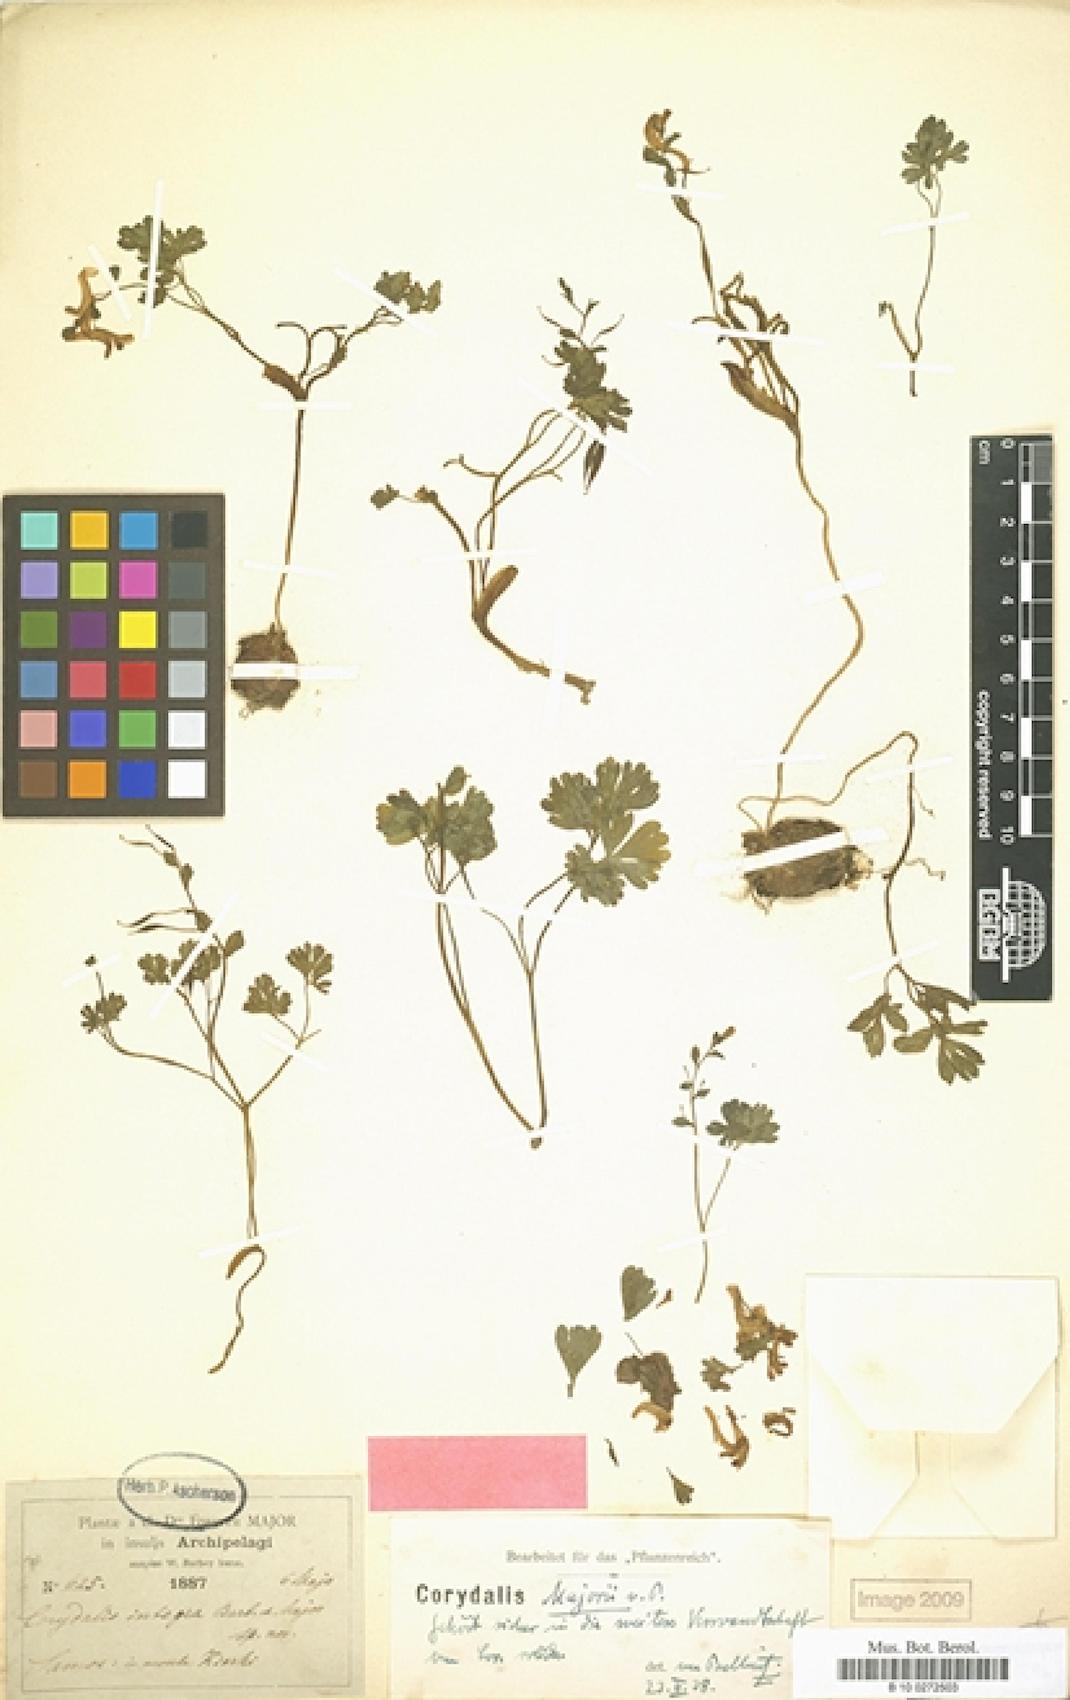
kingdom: Plantae
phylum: Tracheophyta
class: Magnoliopsida
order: Ranunculales
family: Papaveraceae
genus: Corydalis
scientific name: Corydalis integra
